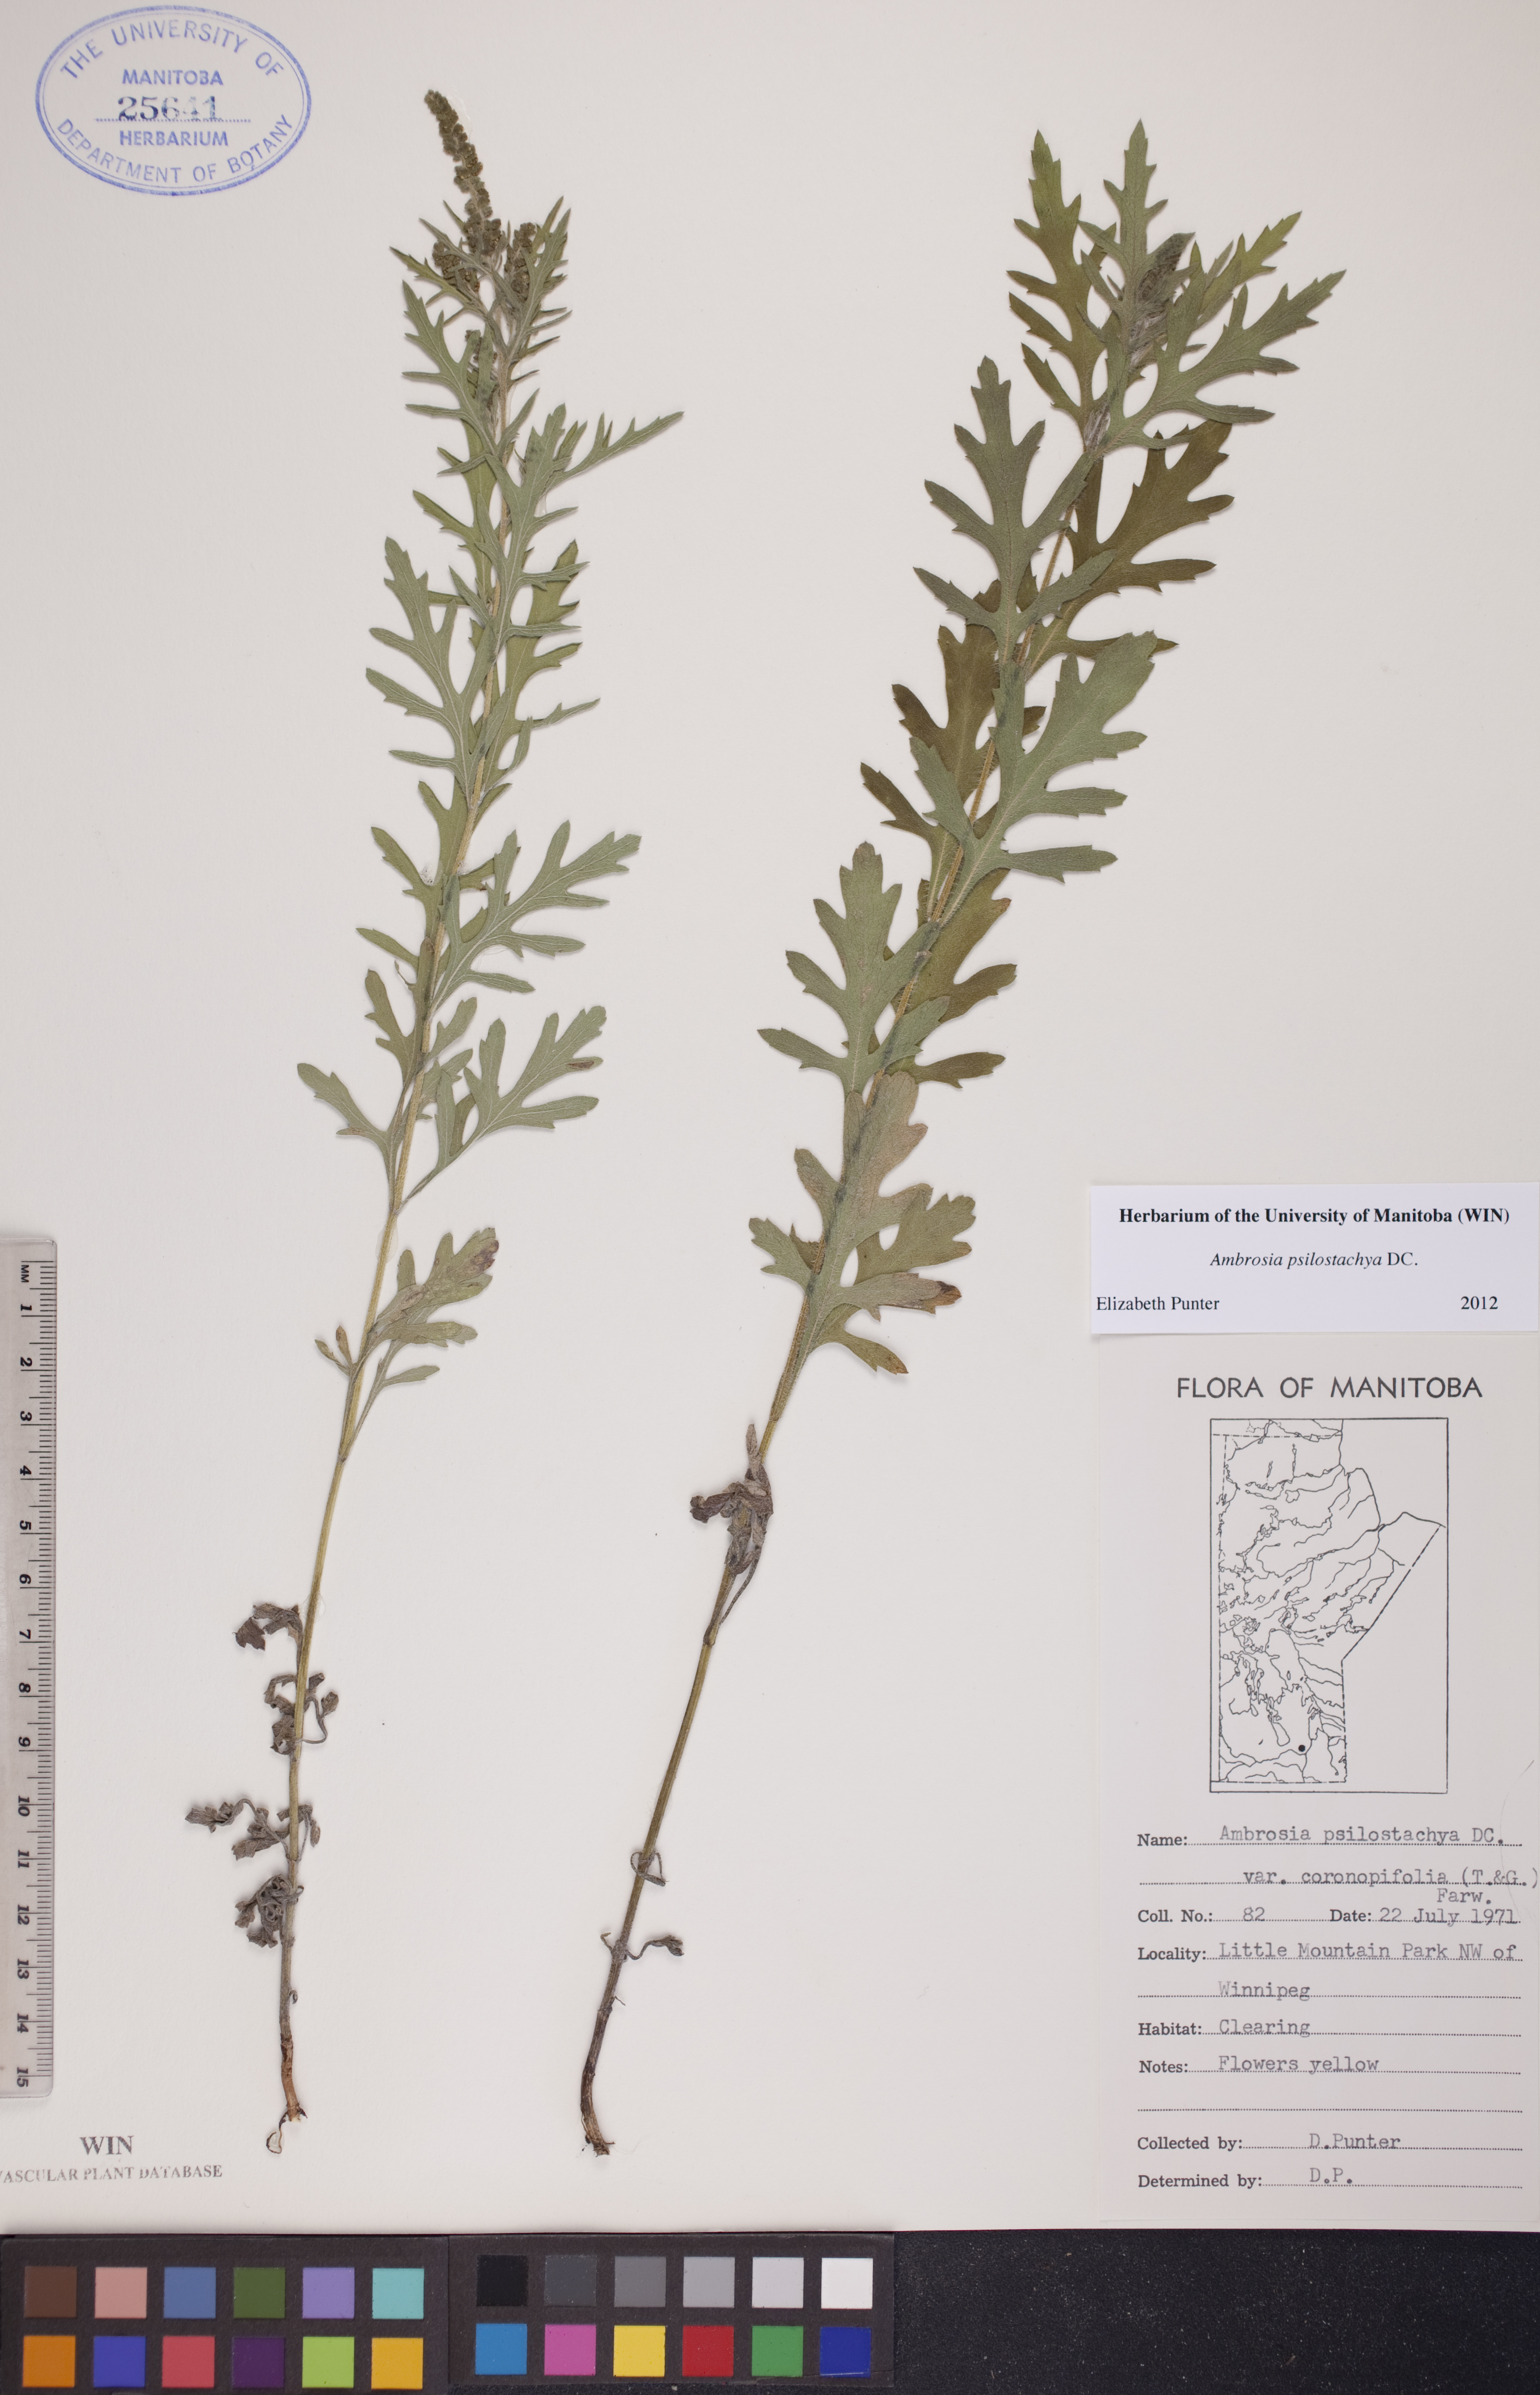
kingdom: Plantae
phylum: Tracheophyta
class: Magnoliopsida
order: Asterales
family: Asteraceae
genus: Ambrosia
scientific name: Ambrosia psilostachya
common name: Perennial ragweed
